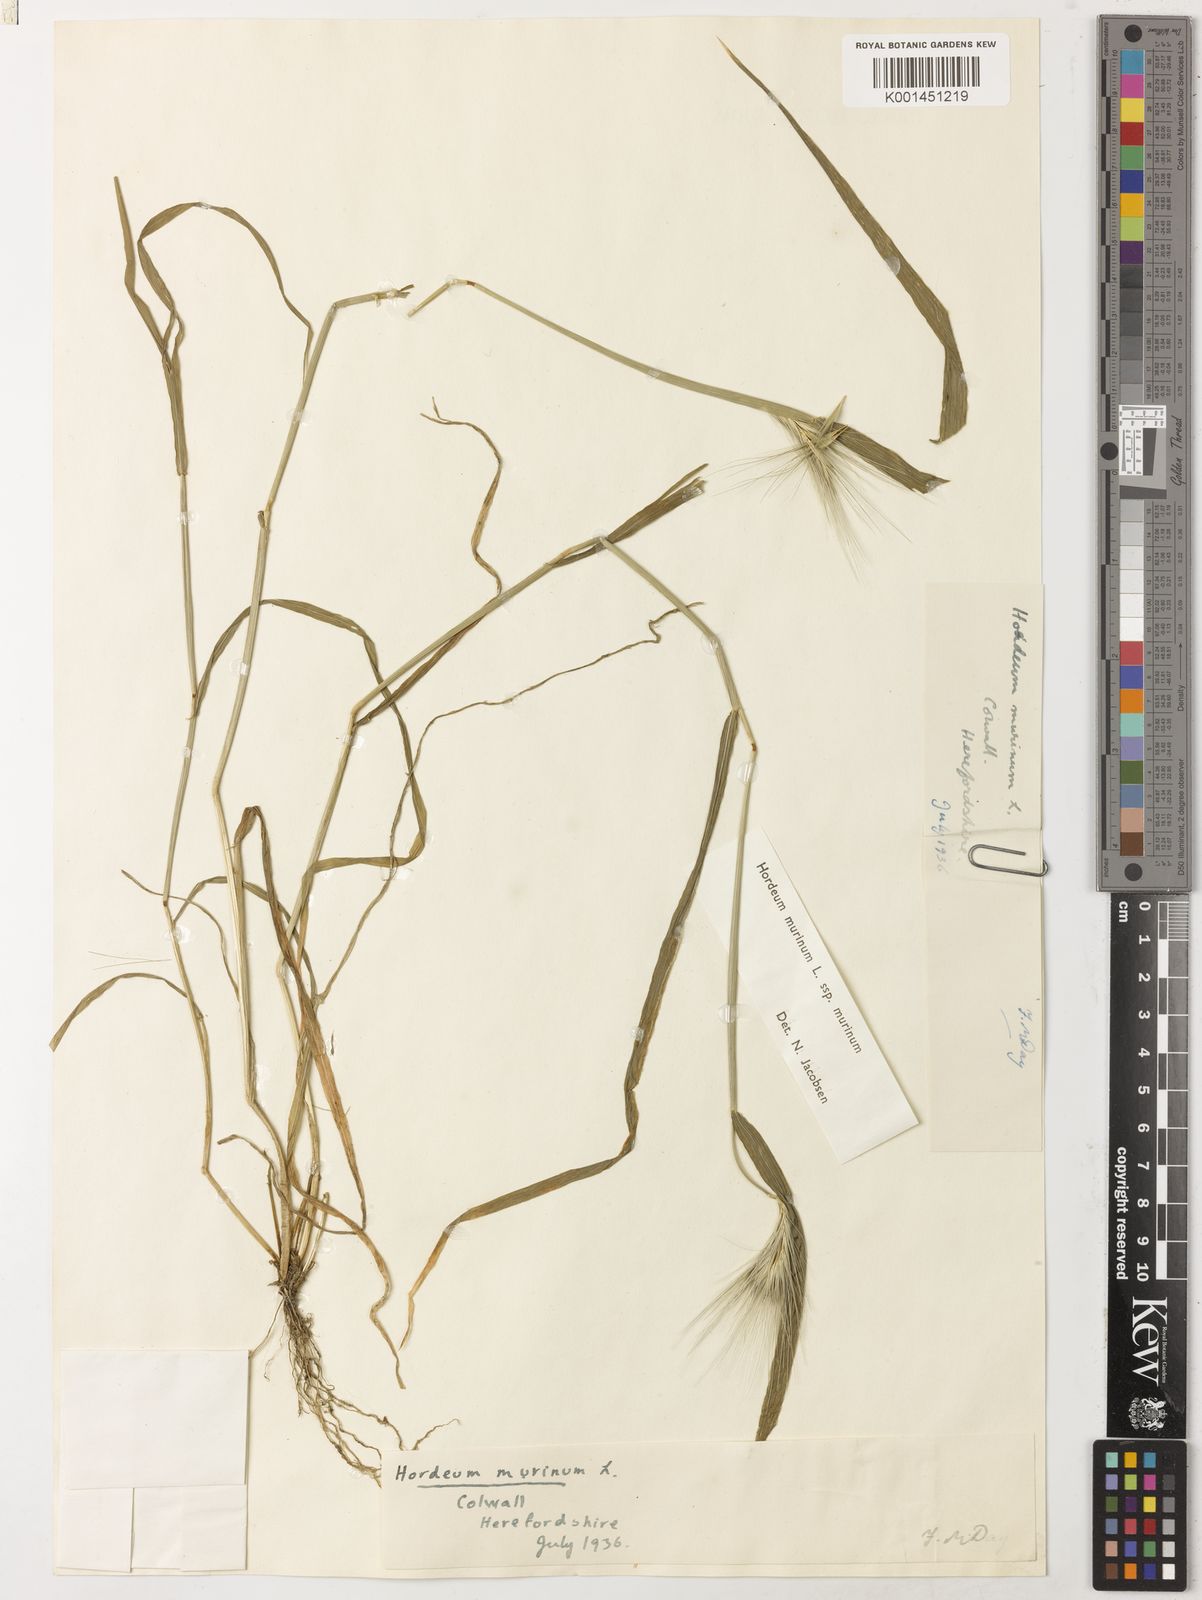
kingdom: Plantae
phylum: Tracheophyta
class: Liliopsida
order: Poales
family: Poaceae
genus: Hordeum
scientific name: Hordeum murinum
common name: Wall barley
